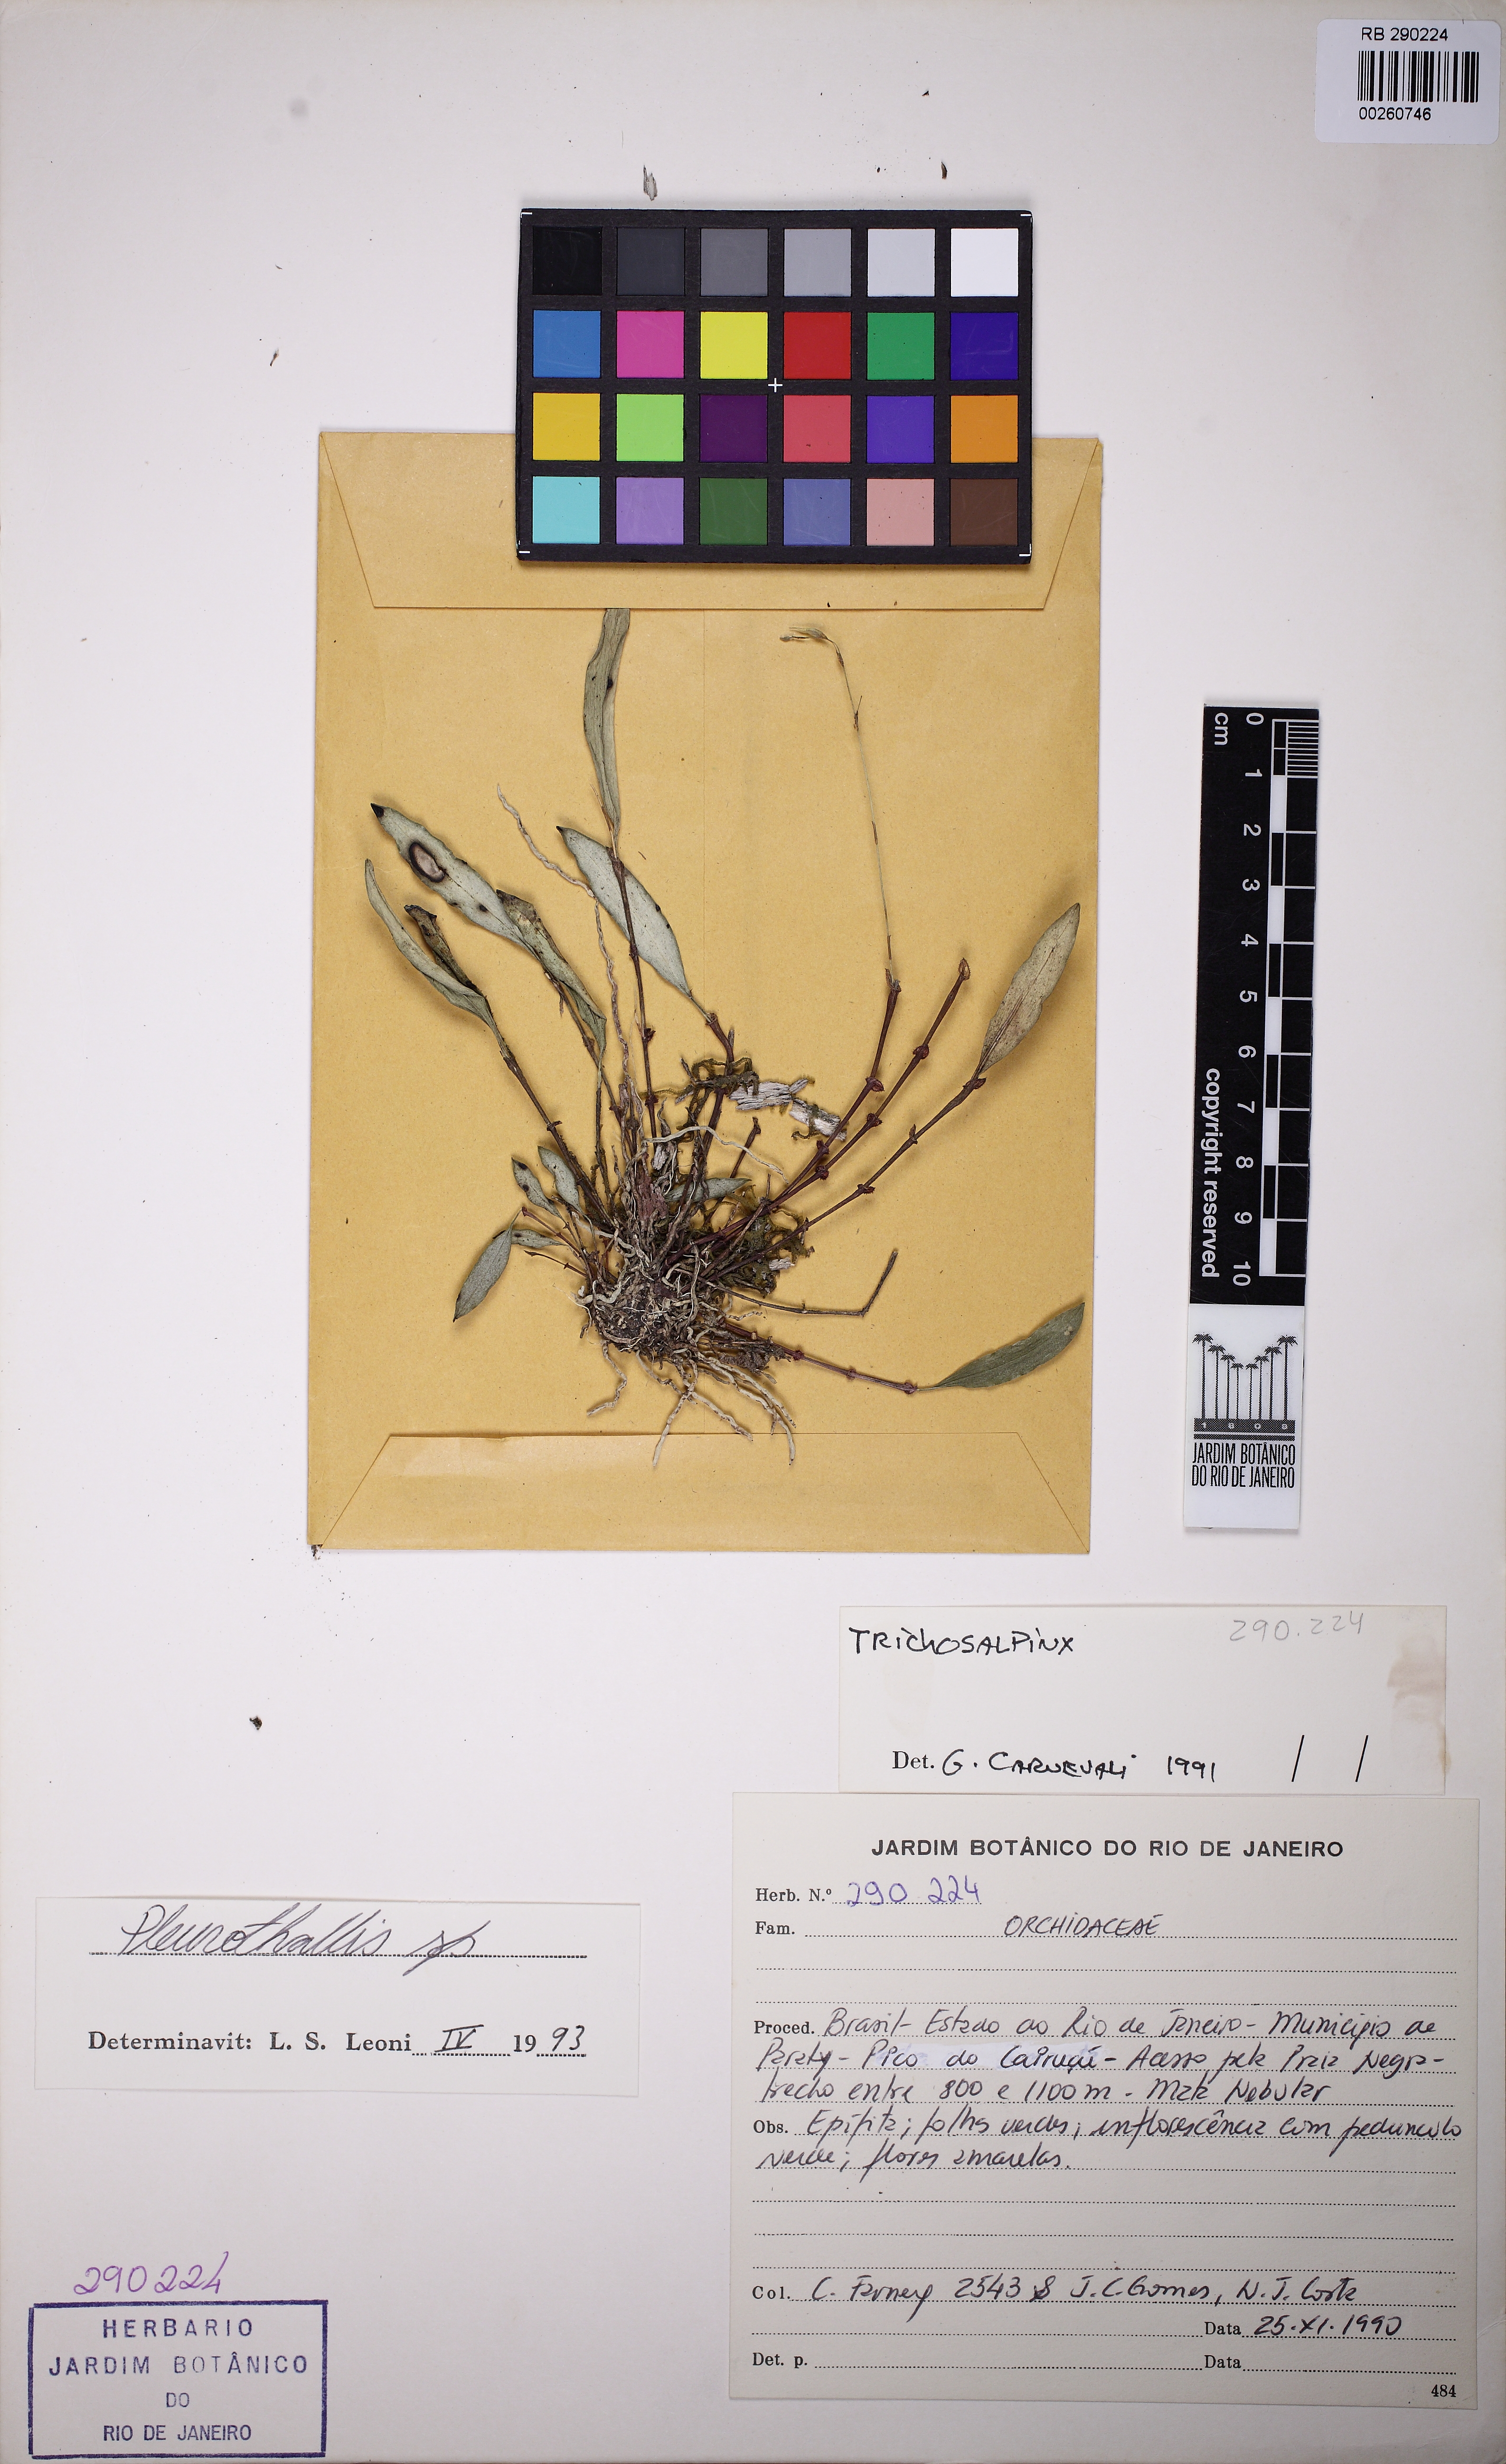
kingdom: Plantae
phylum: Tracheophyta
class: Liliopsida
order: Asparagales
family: Orchidaceae
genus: Trichosalpinx
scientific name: Trichosalpinx
